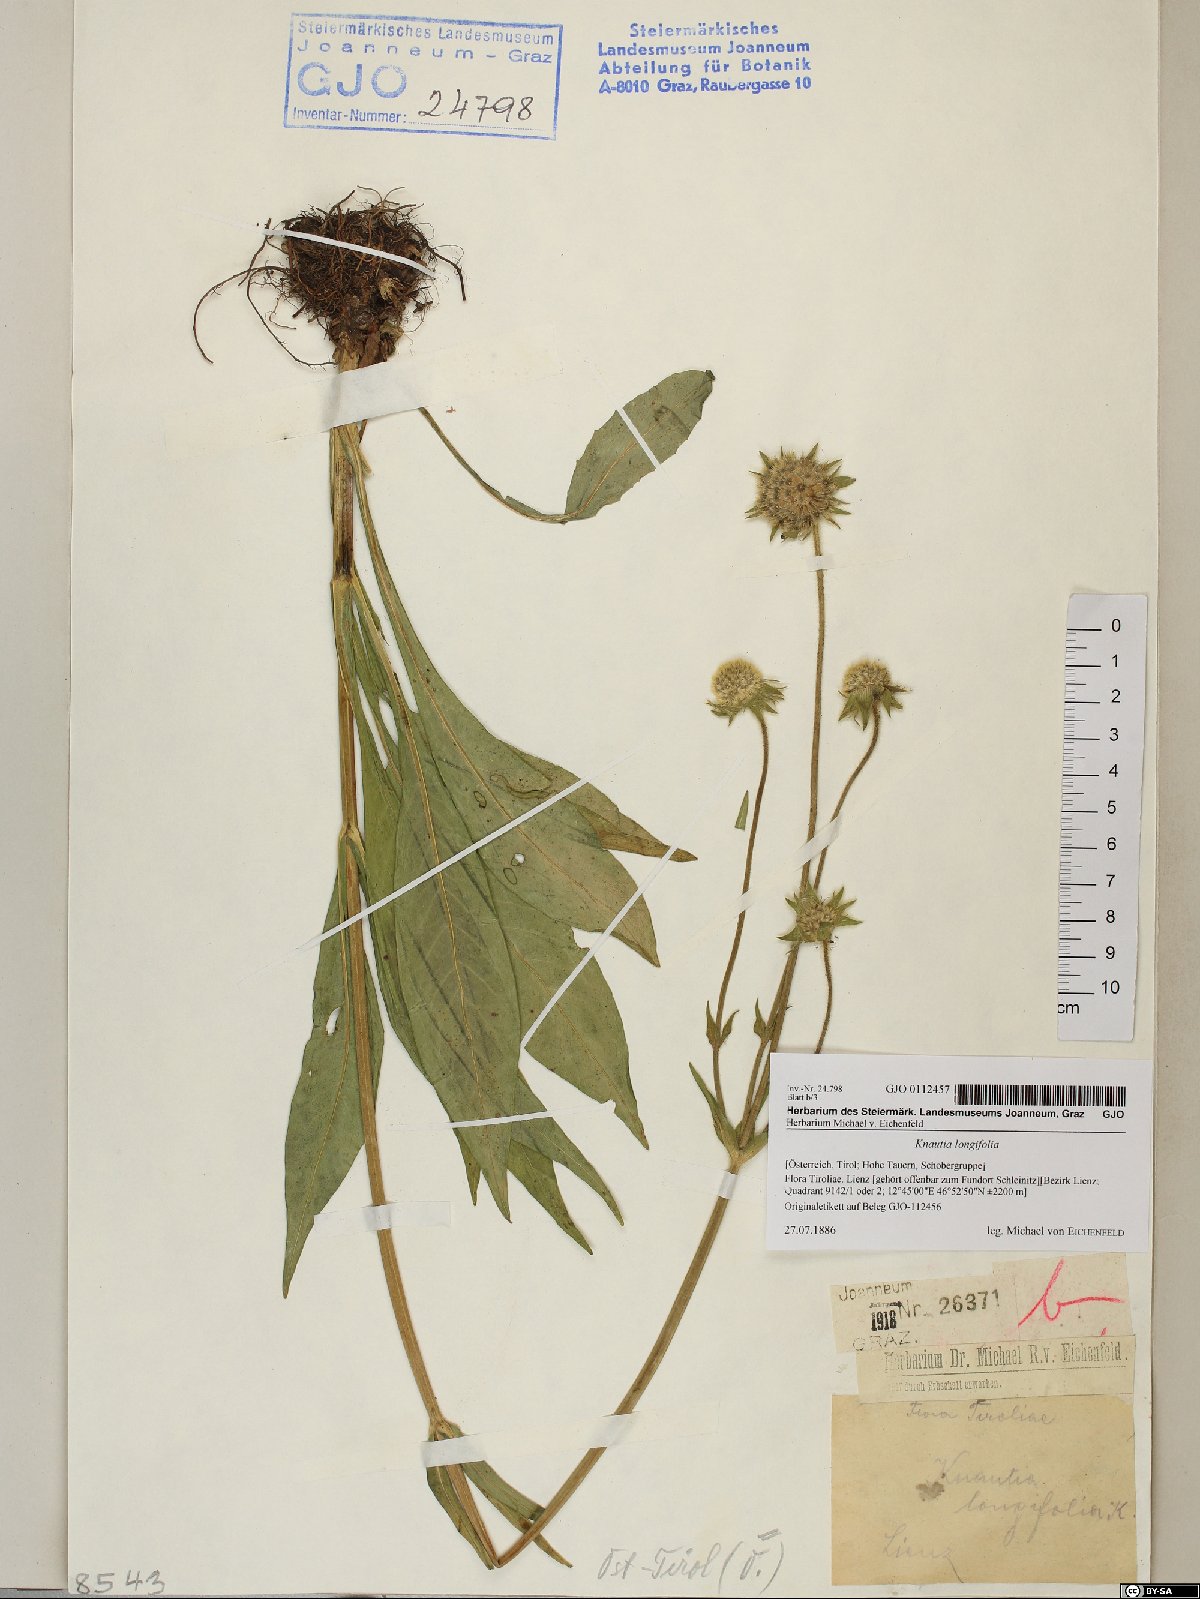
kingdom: Plantae
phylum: Tracheophyta
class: Magnoliopsida
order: Dipsacales
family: Caprifoliaceae
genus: Knautia
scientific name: Knautia longifolia
